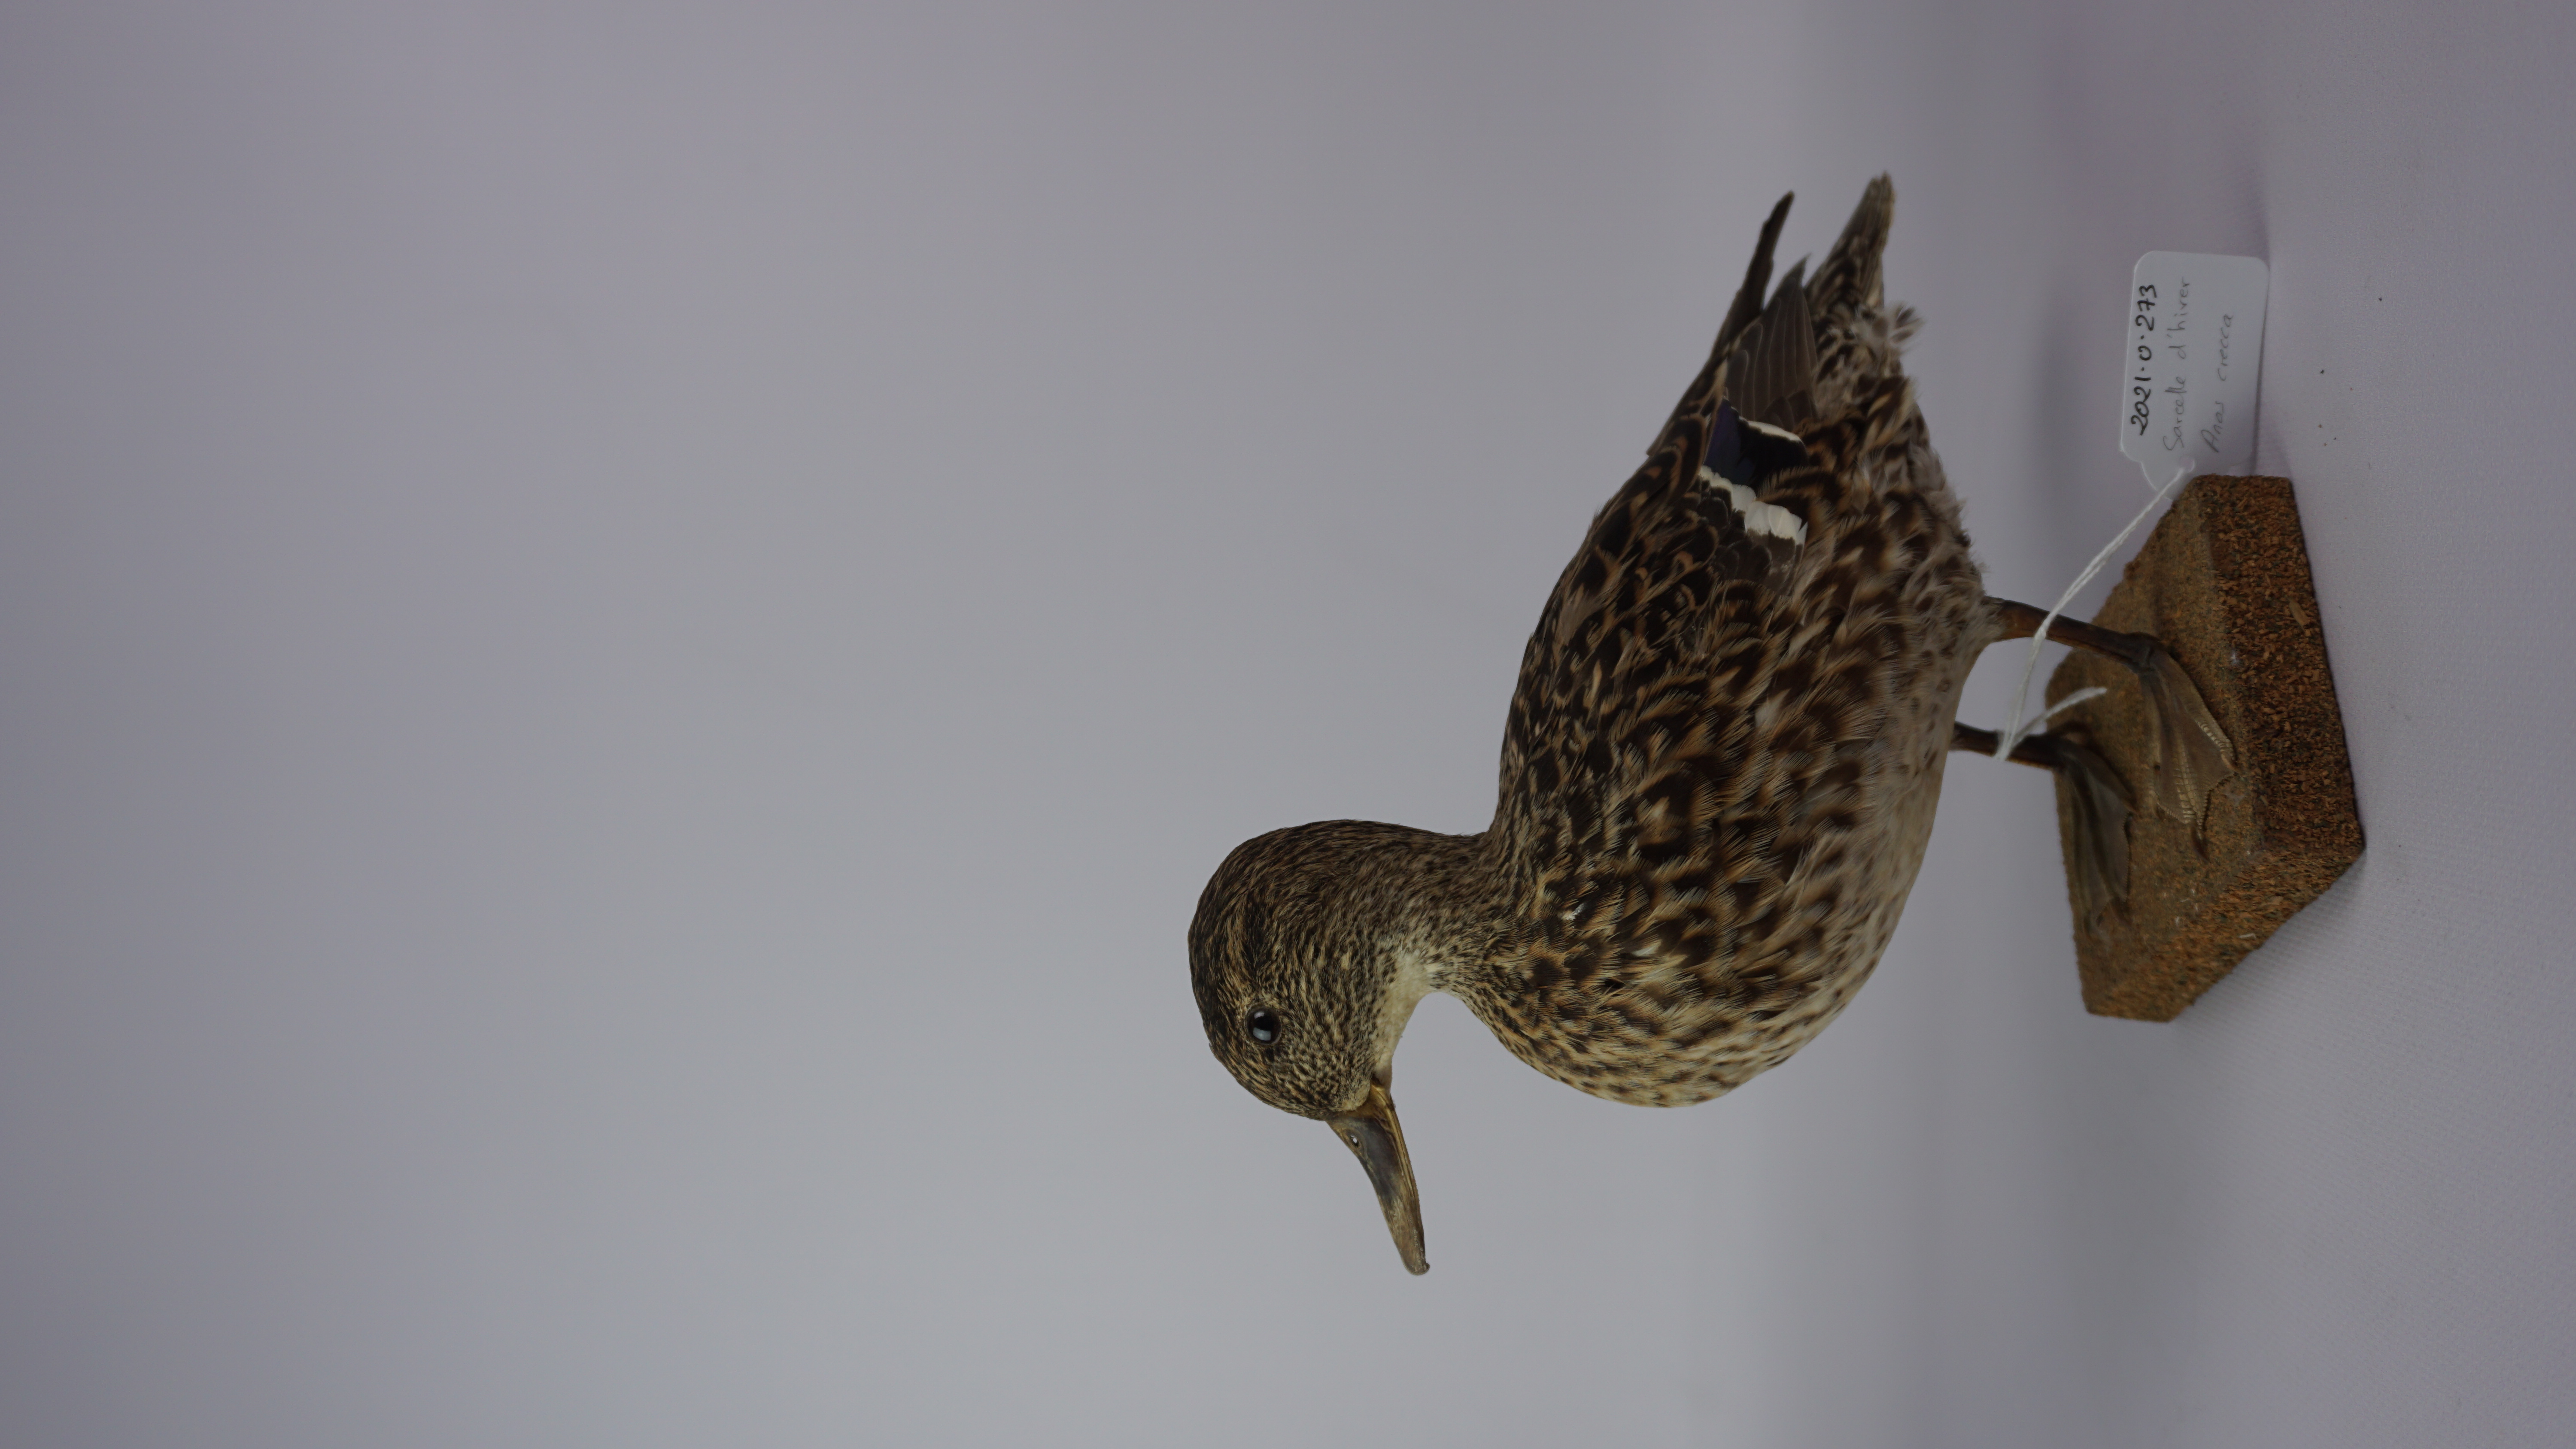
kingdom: Animalia
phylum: Chordata
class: Aves
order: Anseriformes
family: Anatidae
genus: Anas
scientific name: Anas crecca
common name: Eurasian teal
